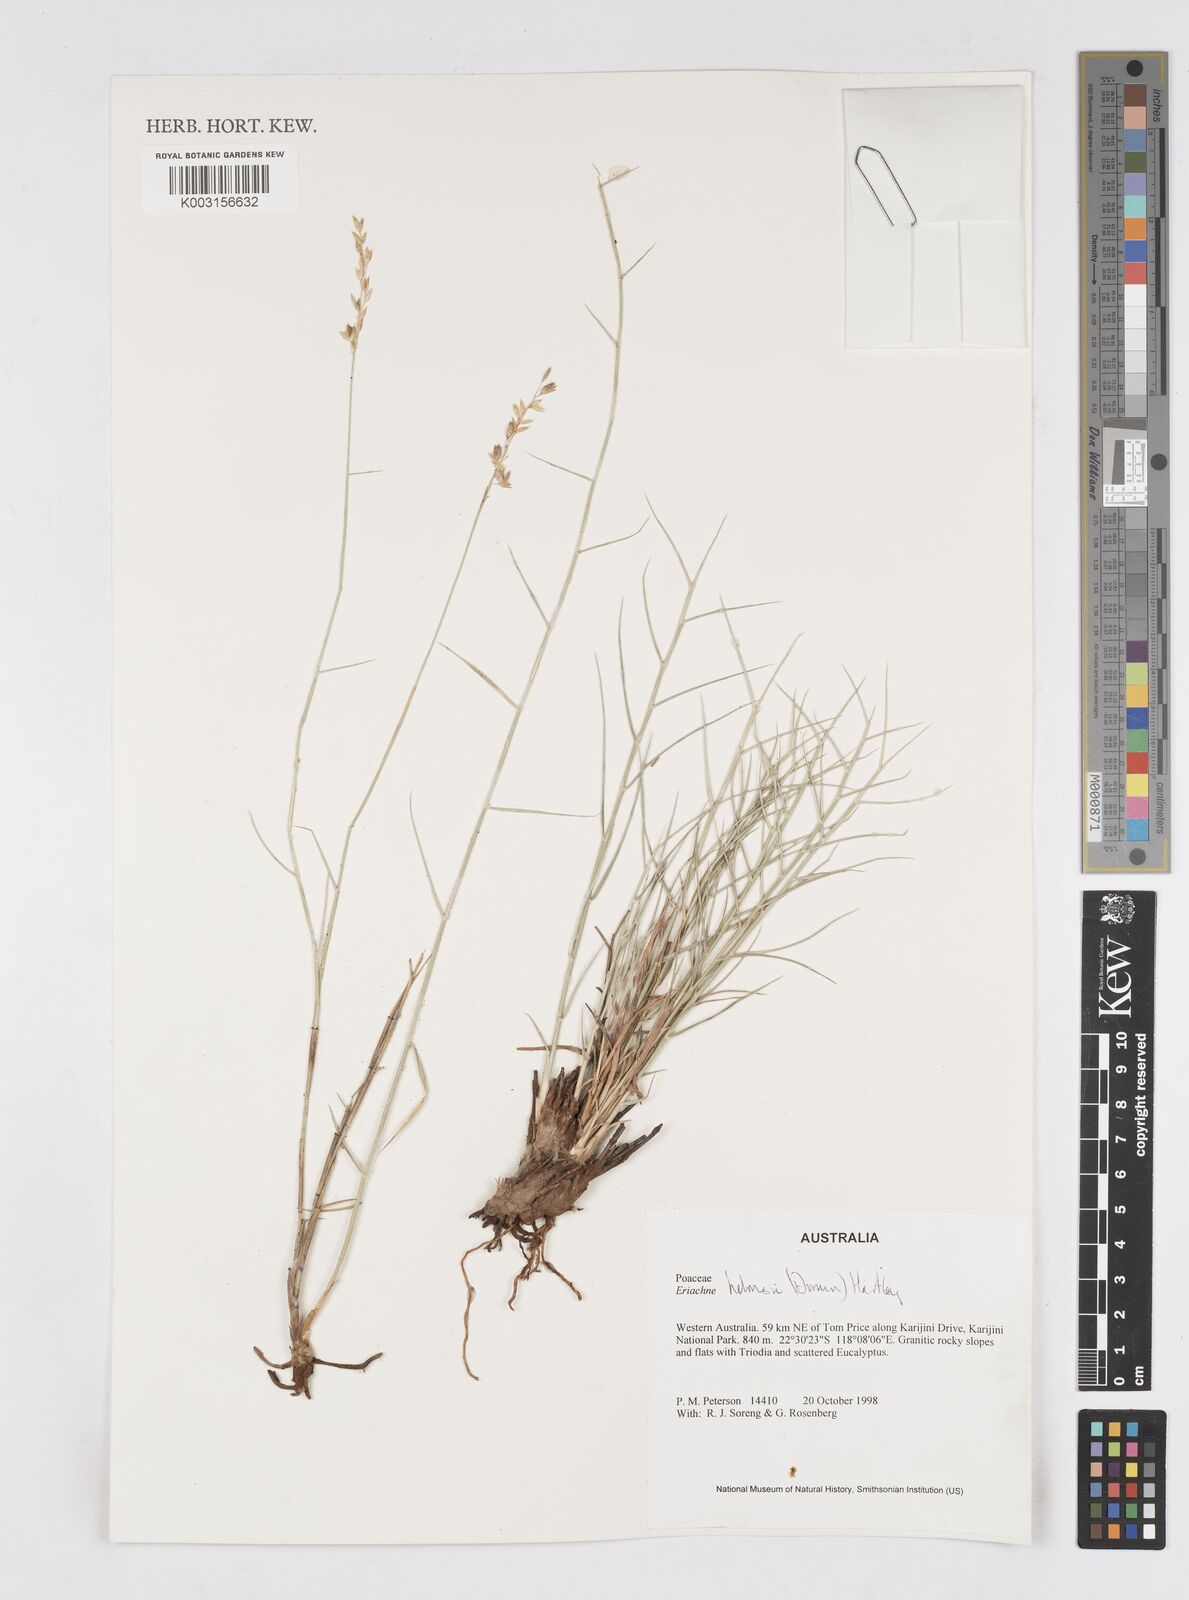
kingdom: Plantae
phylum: Tracheophyta
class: Liliopsida
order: Poales
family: Poaceae
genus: Eriachne
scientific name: Eriachne helmsii
